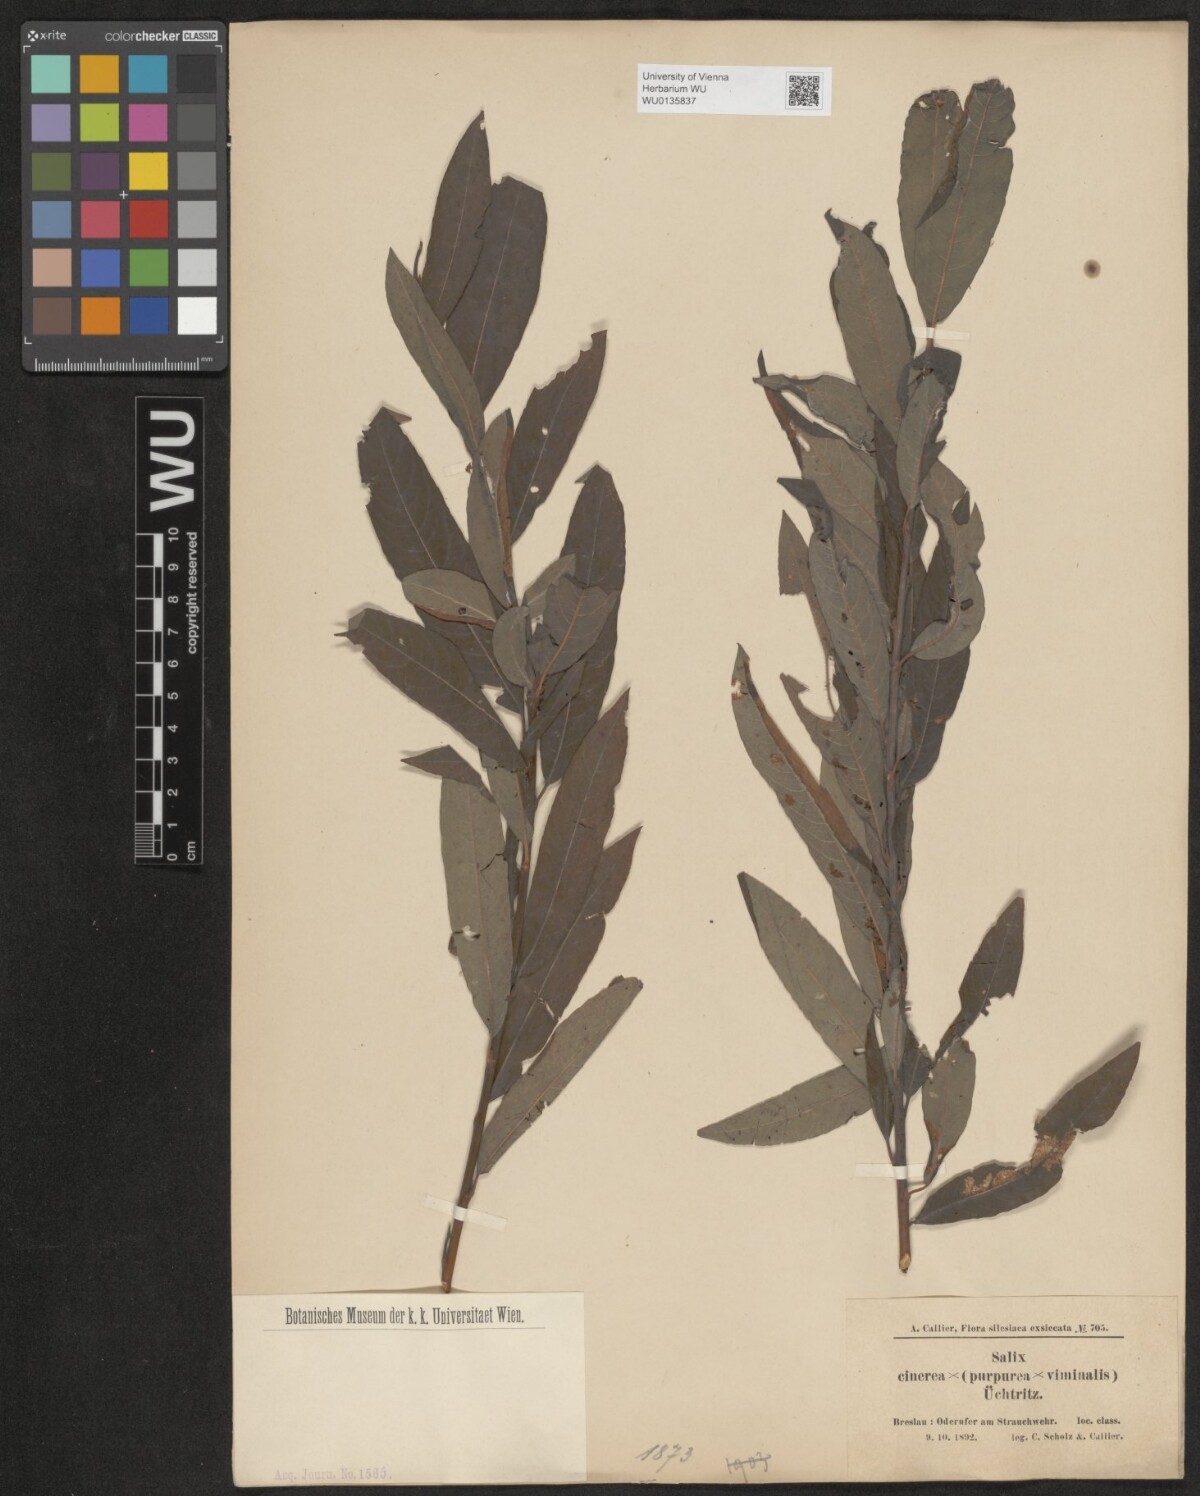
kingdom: Plantae
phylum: Tracheophyta
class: Magnoliopsida
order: Malpighiales
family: Salicaceae
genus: Salix
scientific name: Salix
